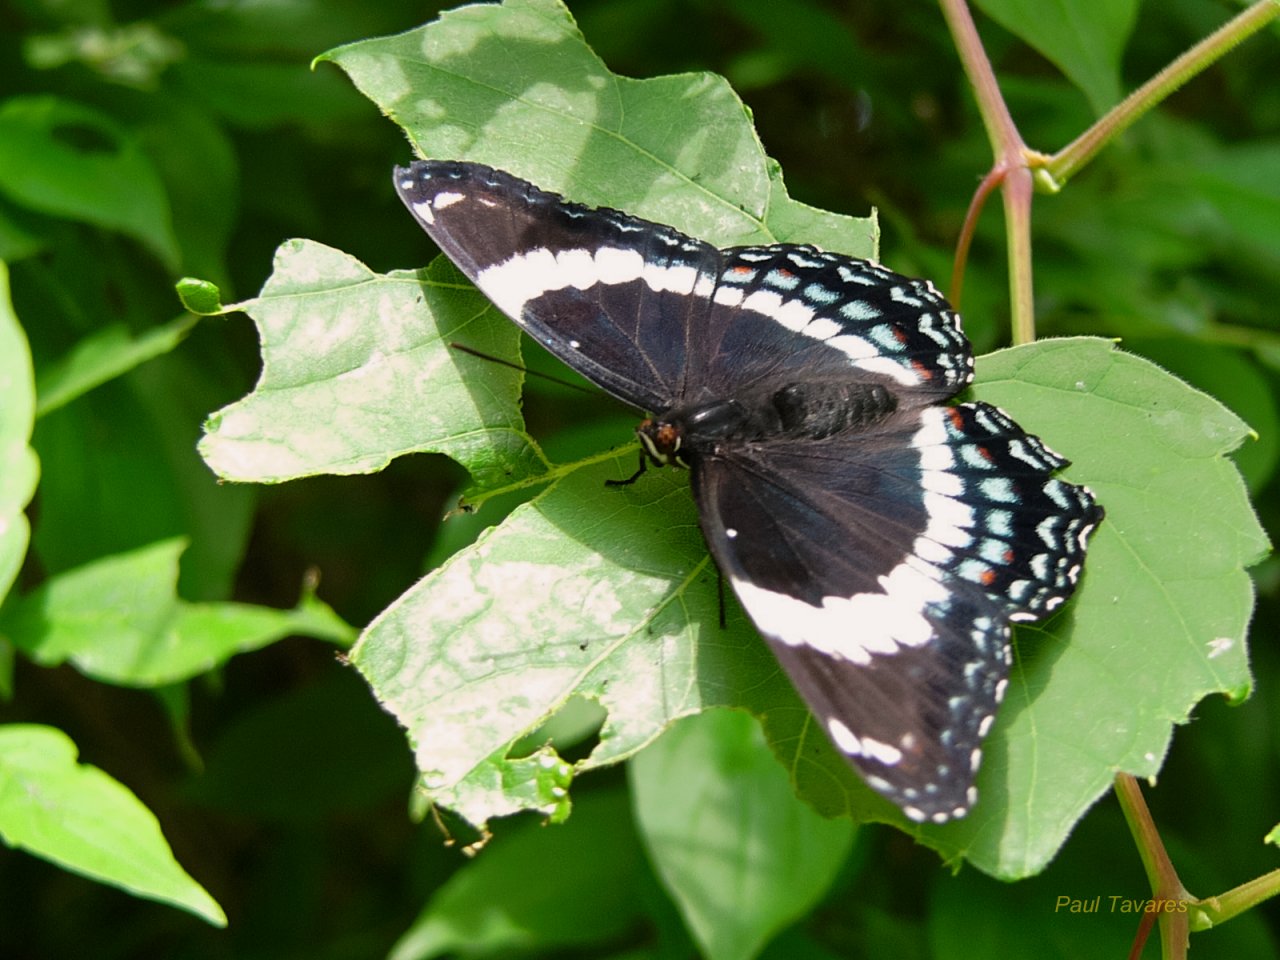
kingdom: Animalia
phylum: Arthropoda
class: Insecta
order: Lepidoptera
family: Nymphalidae
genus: Limenitis
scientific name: Limenitis arthemis
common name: Red-spotted Admiral
